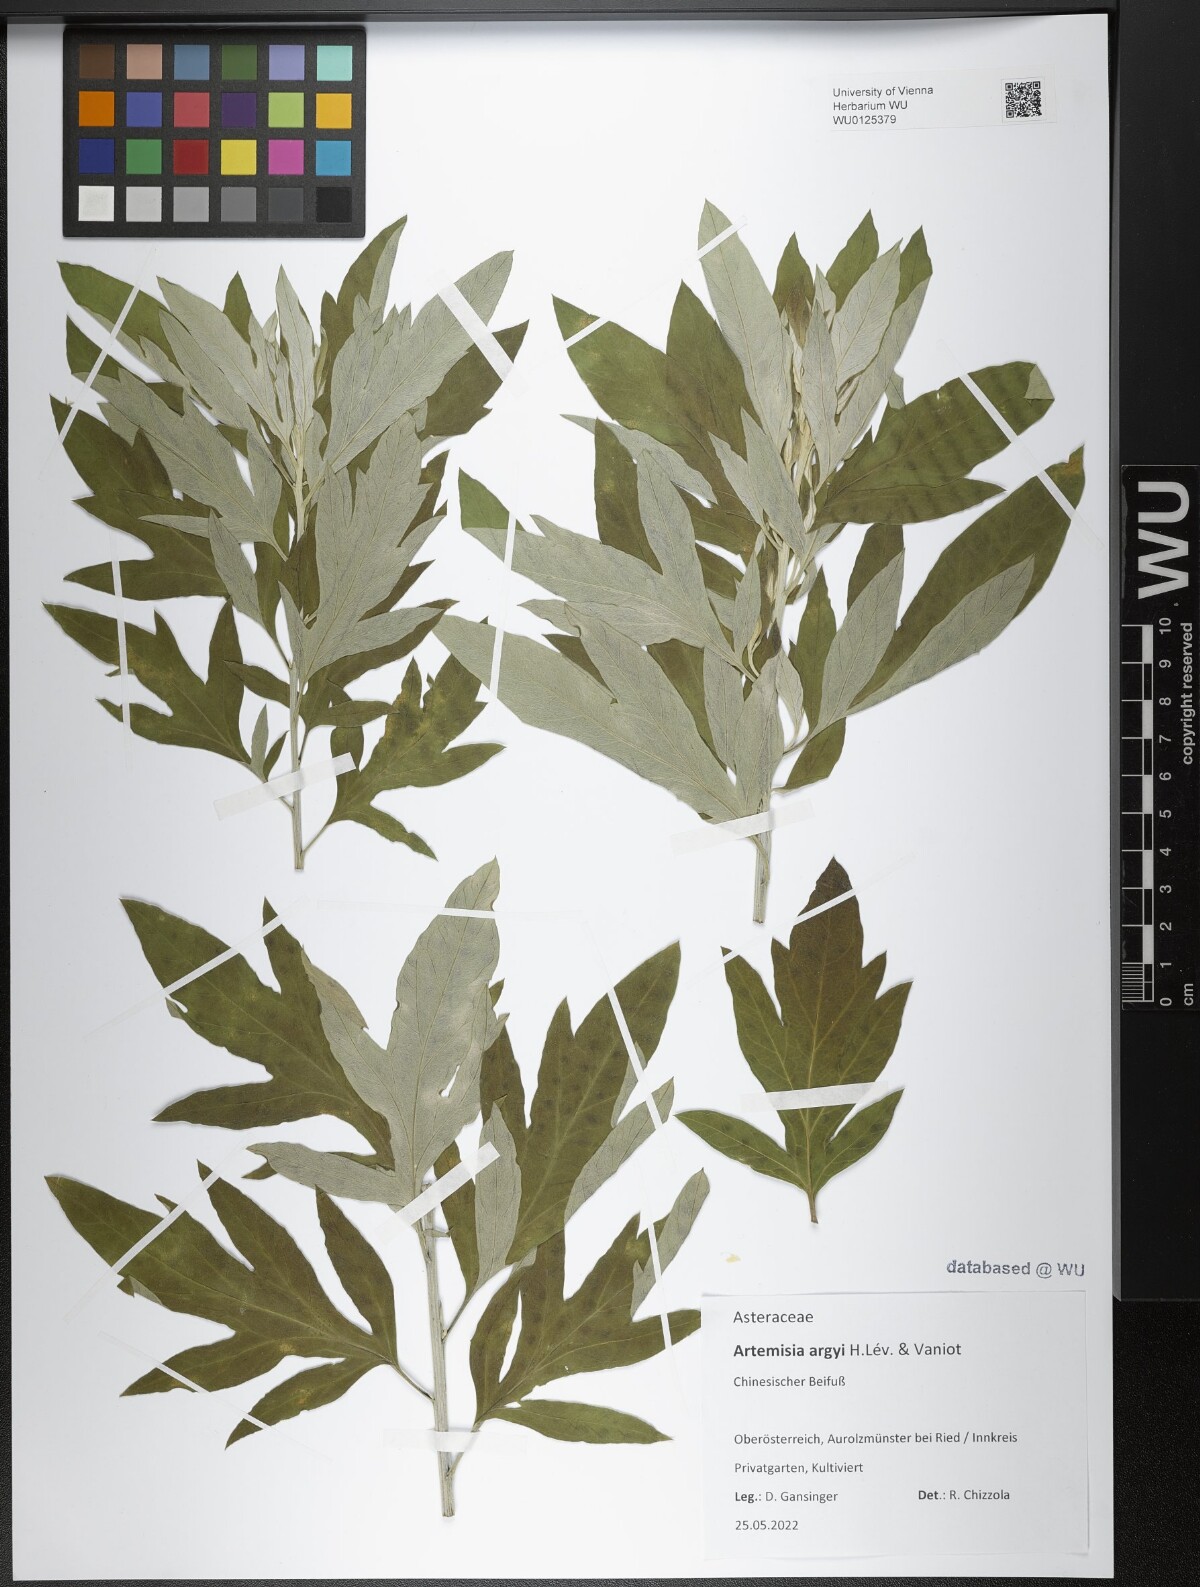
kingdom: Plantae
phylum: Tracheophyta
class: Magnoliopsida
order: Asterales
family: Asteraceae
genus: Artemisia
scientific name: Artemisia argyi
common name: Chinese mugwort
